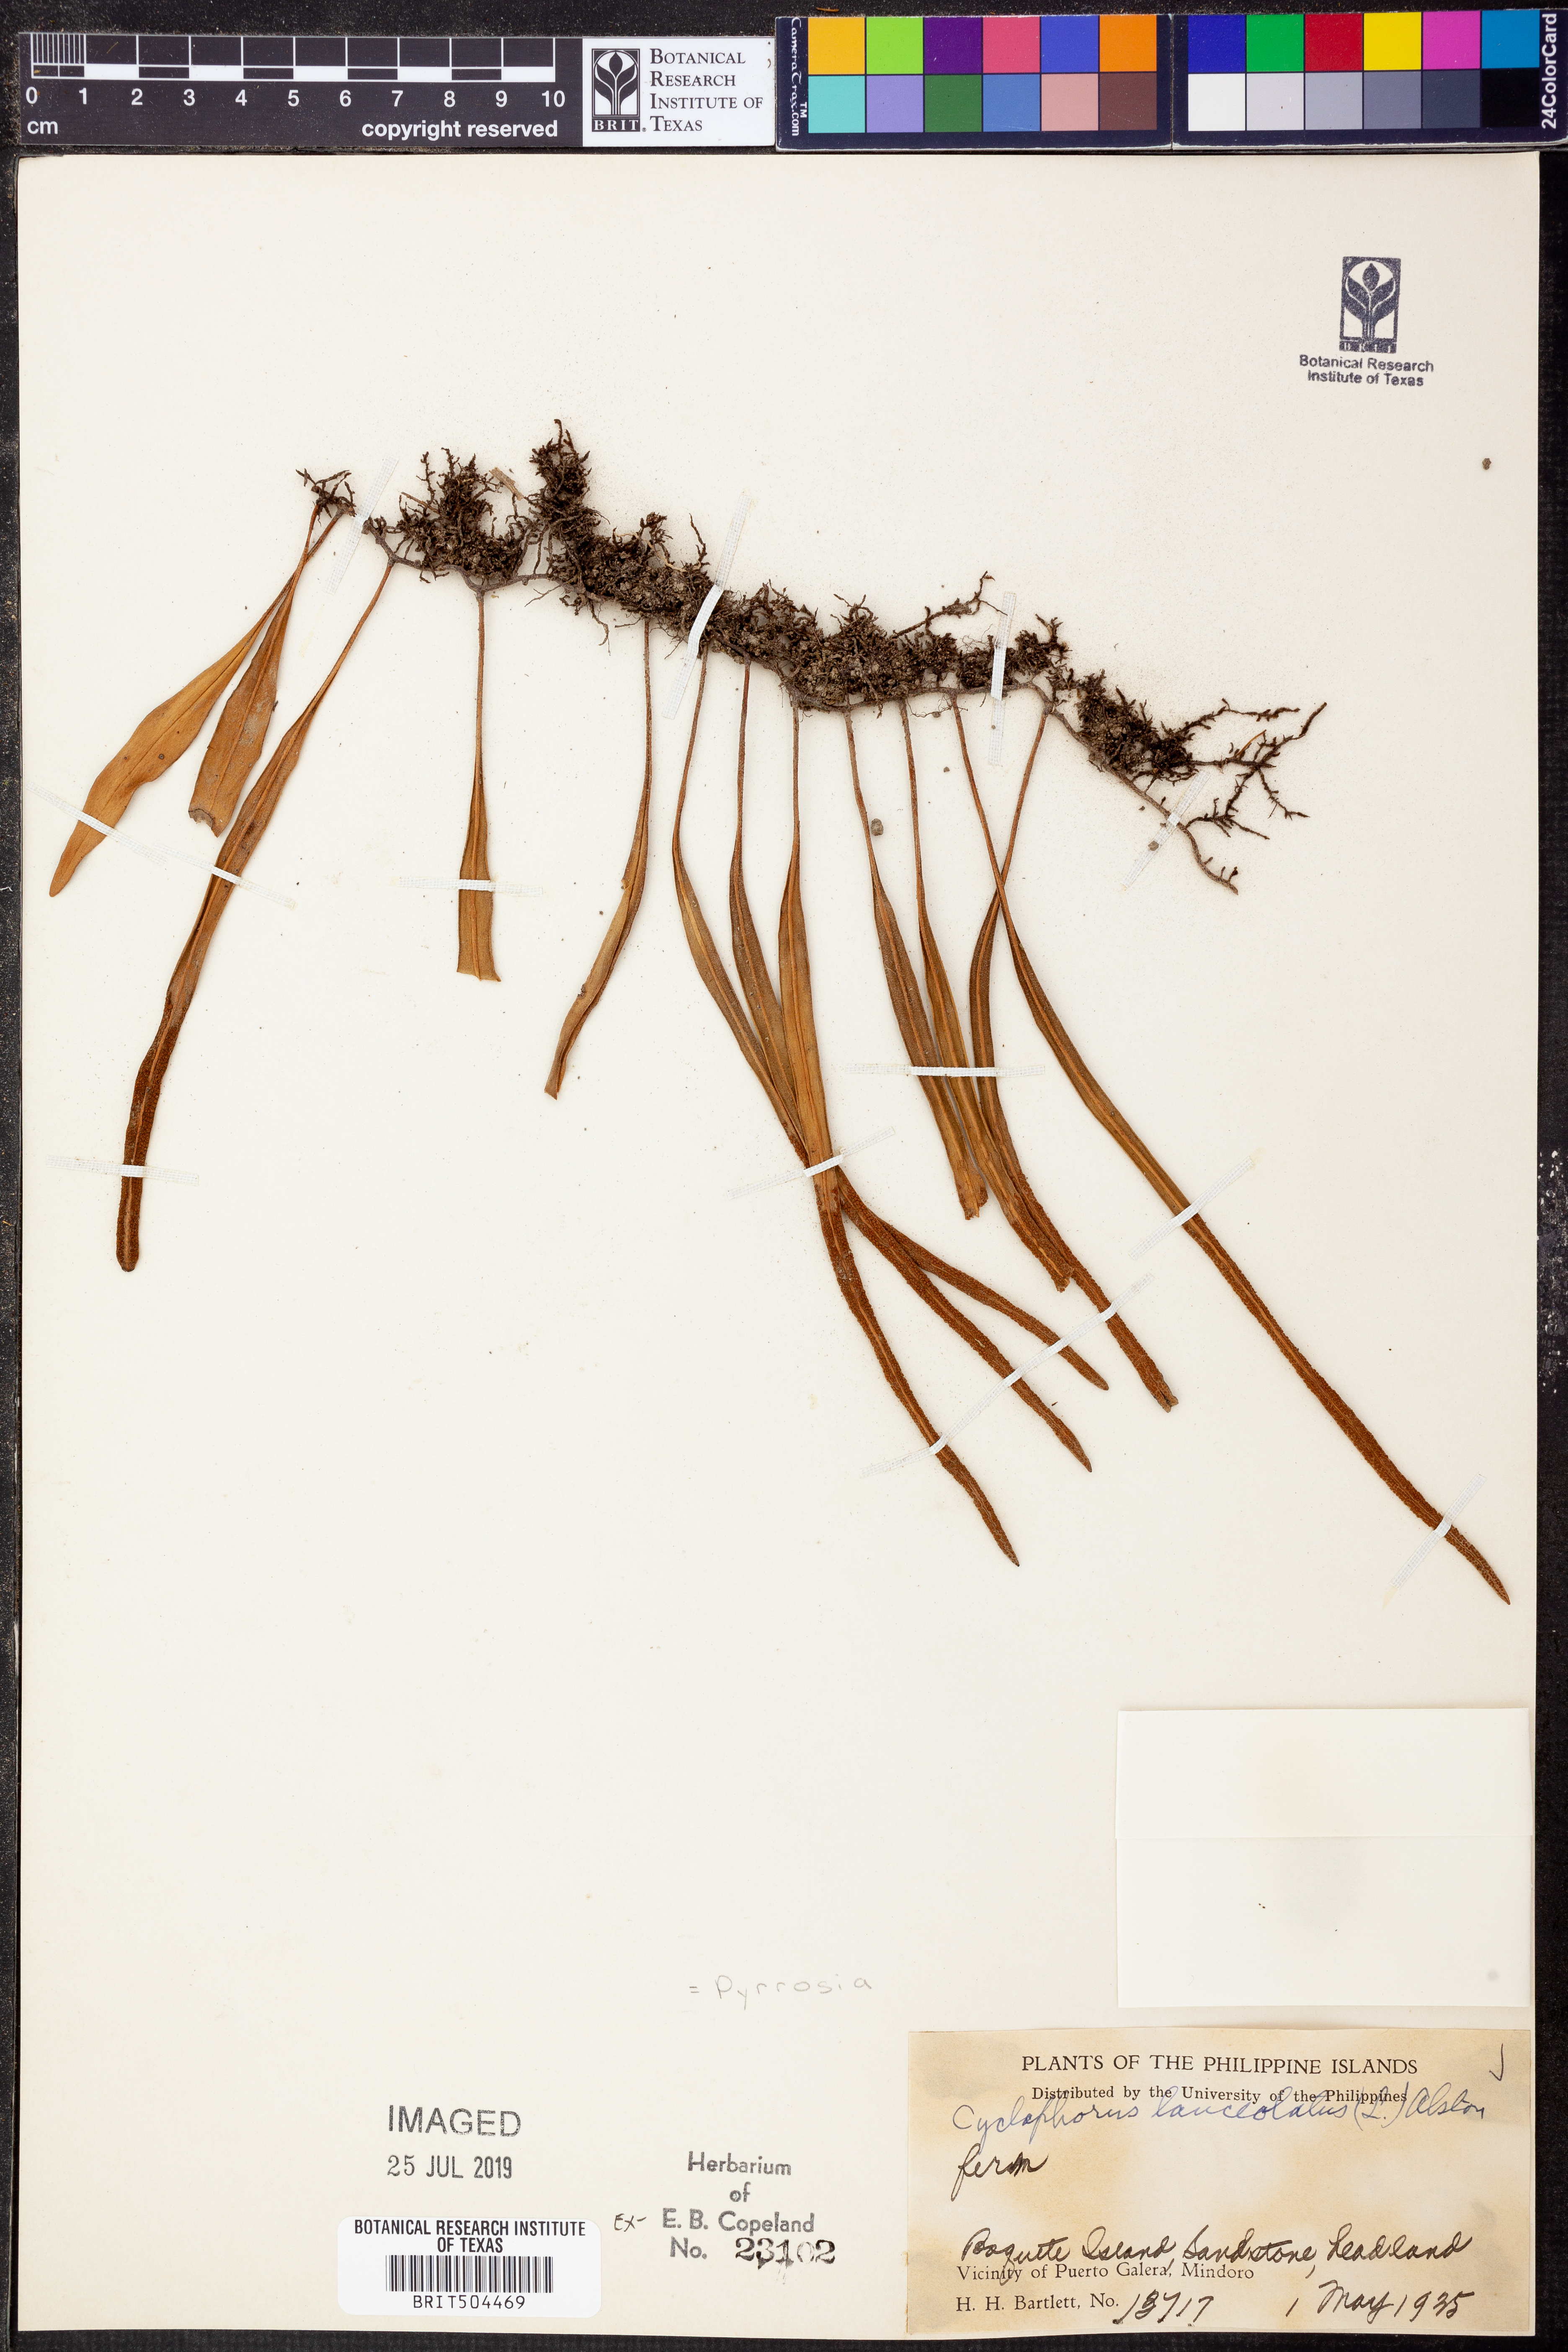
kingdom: Plantae
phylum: Tracheophyta
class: Polypodiopsida
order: Polypodiales
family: Polypodiaceae
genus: Pyrrosia
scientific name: Pyrrosia lanceolata
